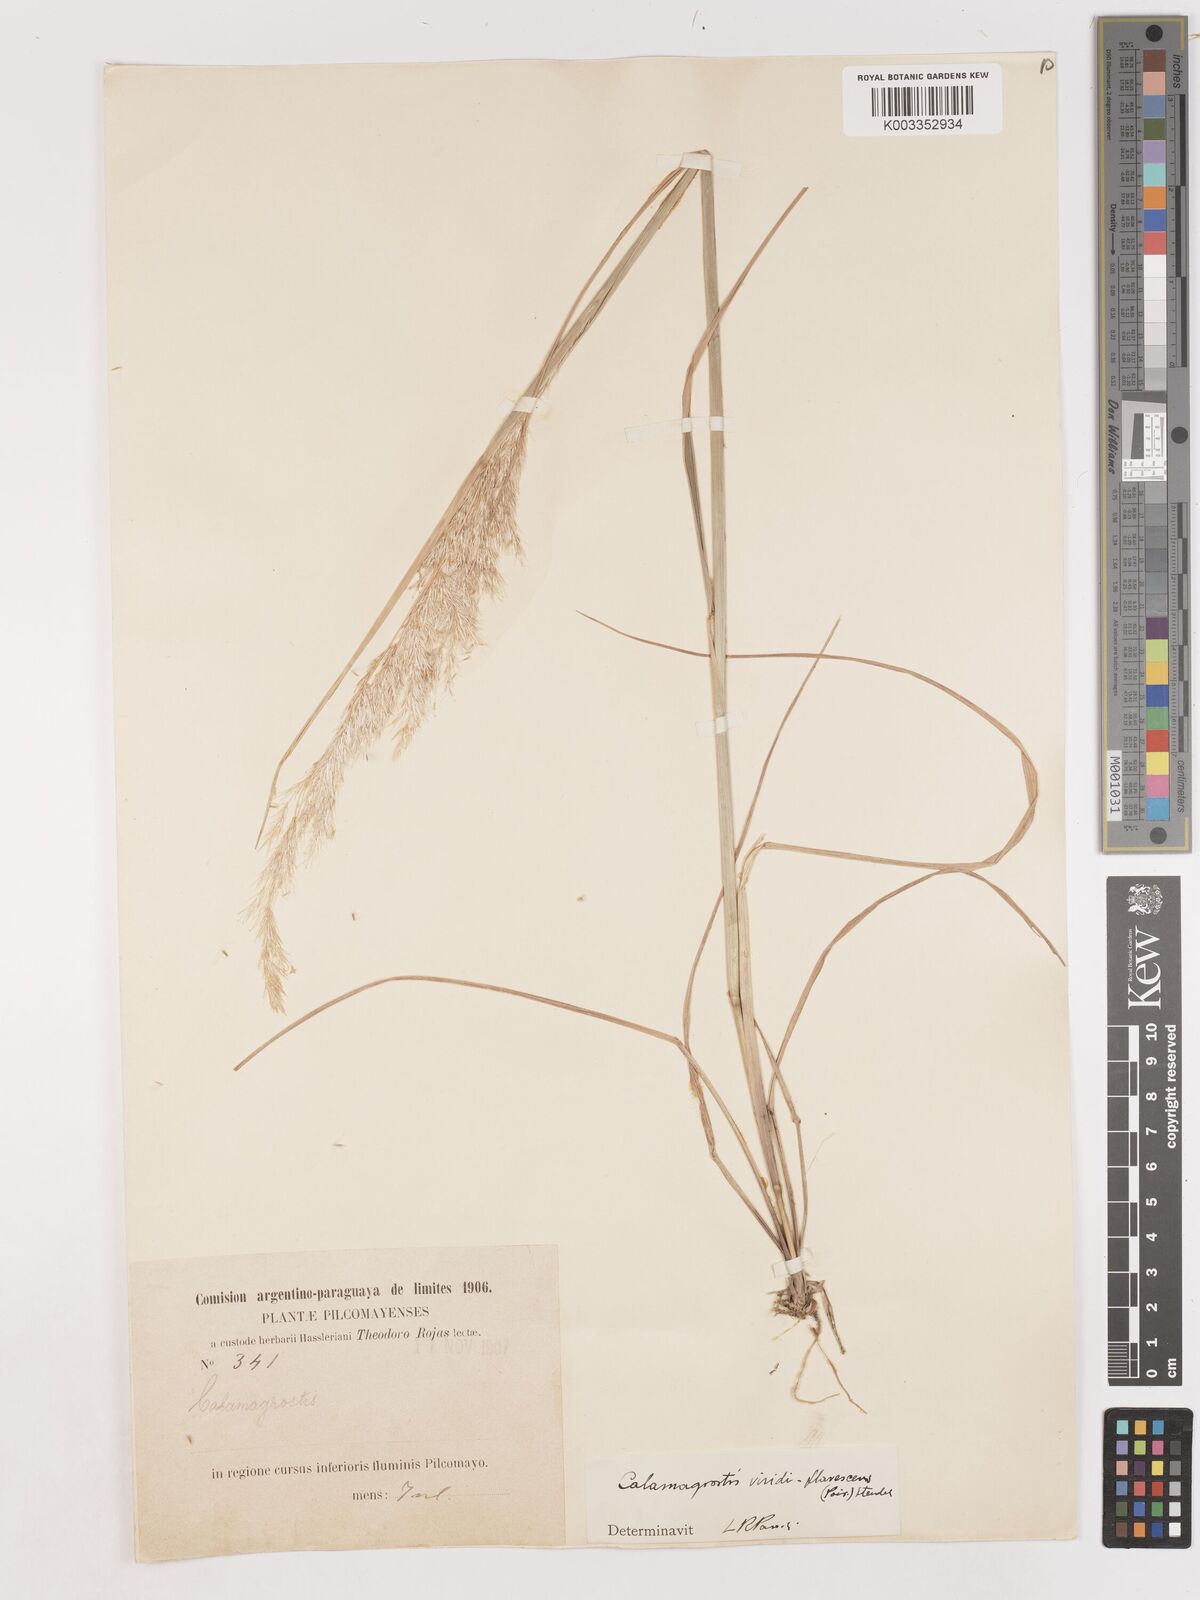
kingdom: Plantae
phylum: Tracheophyta
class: Liliopsida
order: Poales
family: Poaceae
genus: Cinnagrostis
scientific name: Cinnagrostis viridiflavescens
